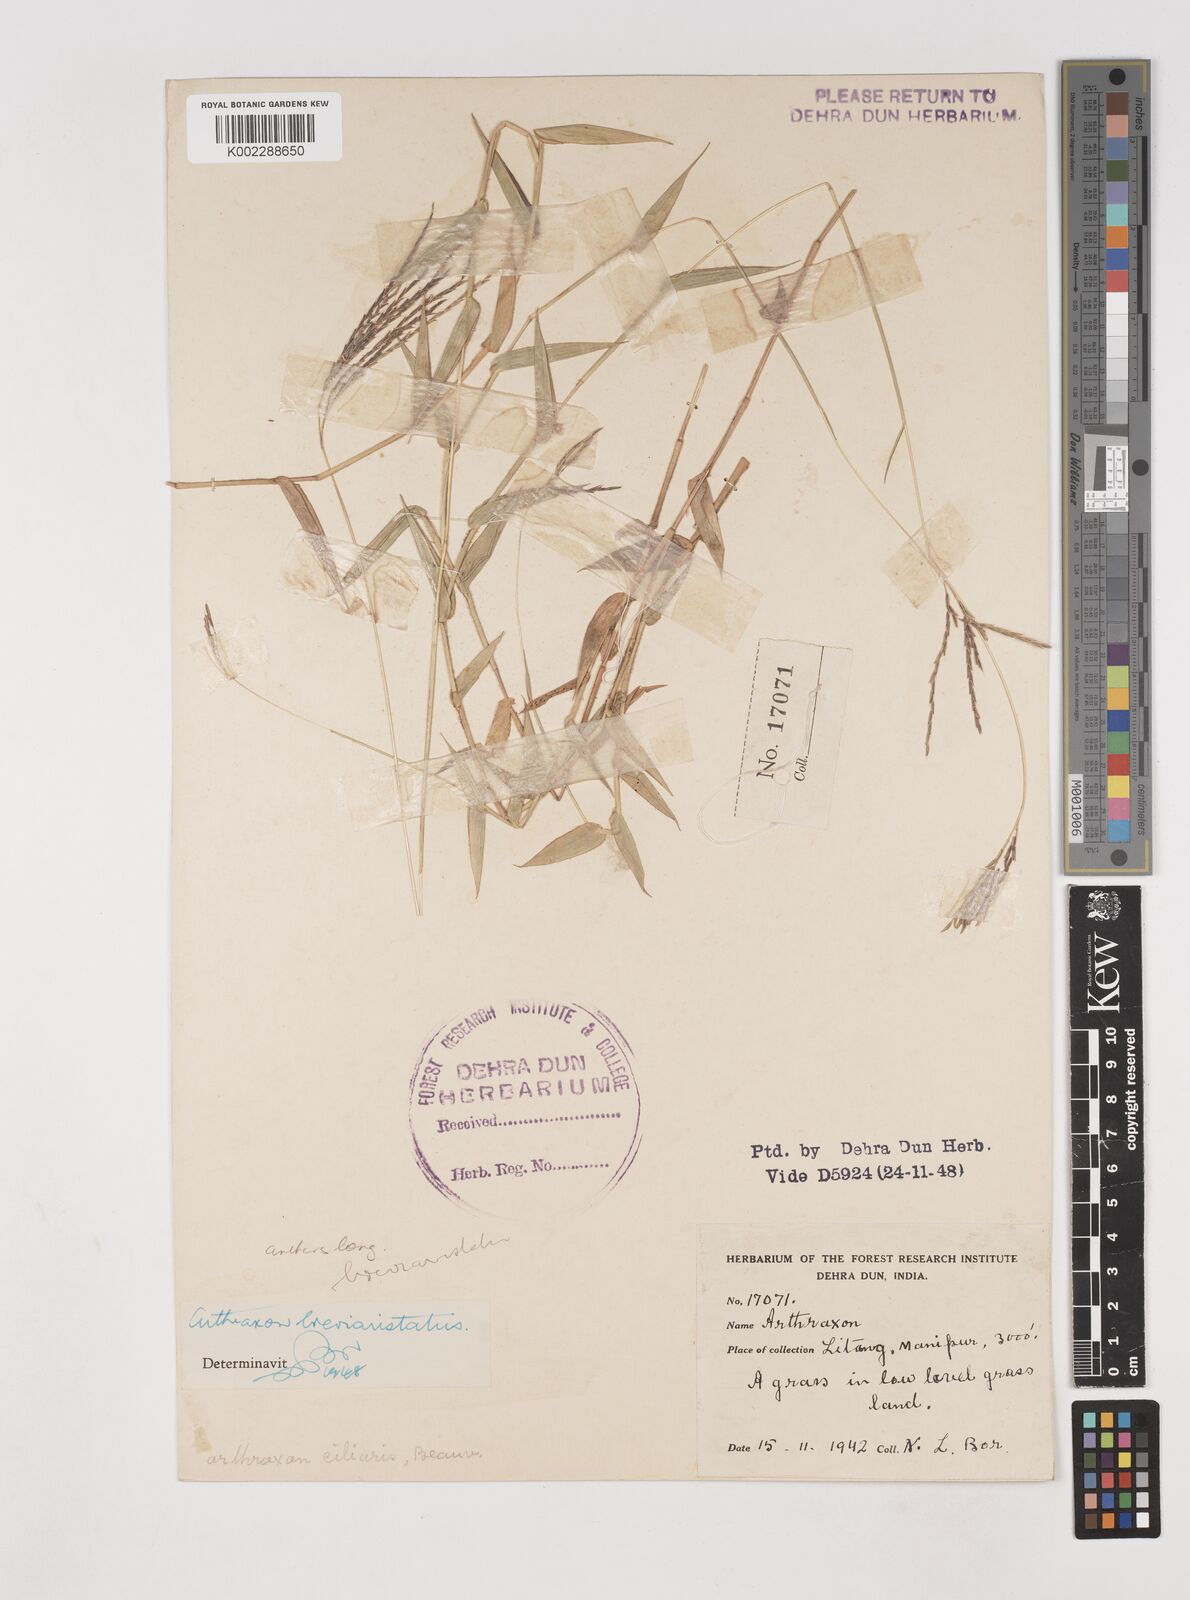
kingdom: Plantae
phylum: Tracheophyta
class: Liliopsida
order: Poales
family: Poaceae
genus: Arthraxon
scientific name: Arthraxon typicus
